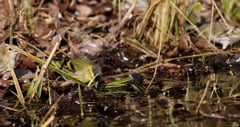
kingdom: Animalia
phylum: Chordata
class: Aves
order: Passeriformes
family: Fringillidae
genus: Spinus
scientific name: Spinus spinus
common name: Eurasian siskin
